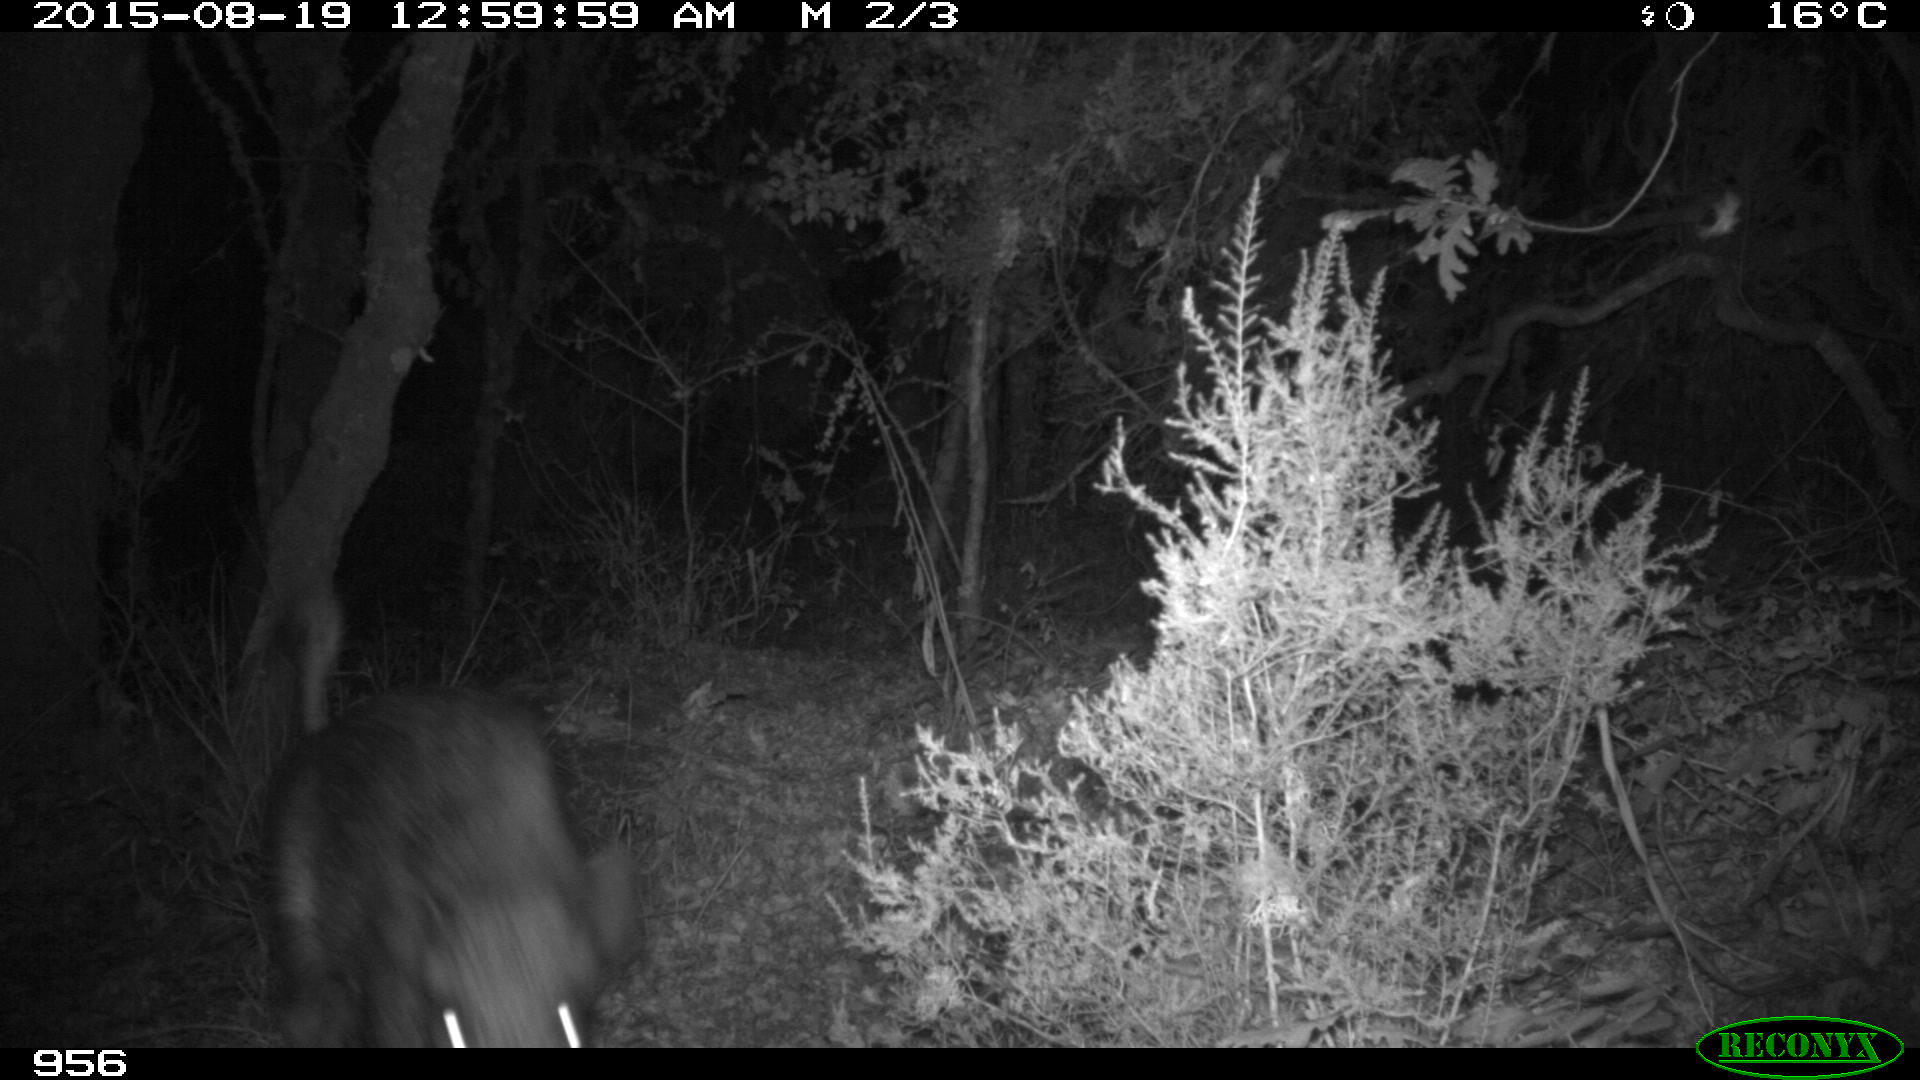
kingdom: Animalia
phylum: Chordata
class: Mammalia
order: Artiodactyla
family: Suidae
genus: Sus
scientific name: Sus scrofa
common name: Wild boar
